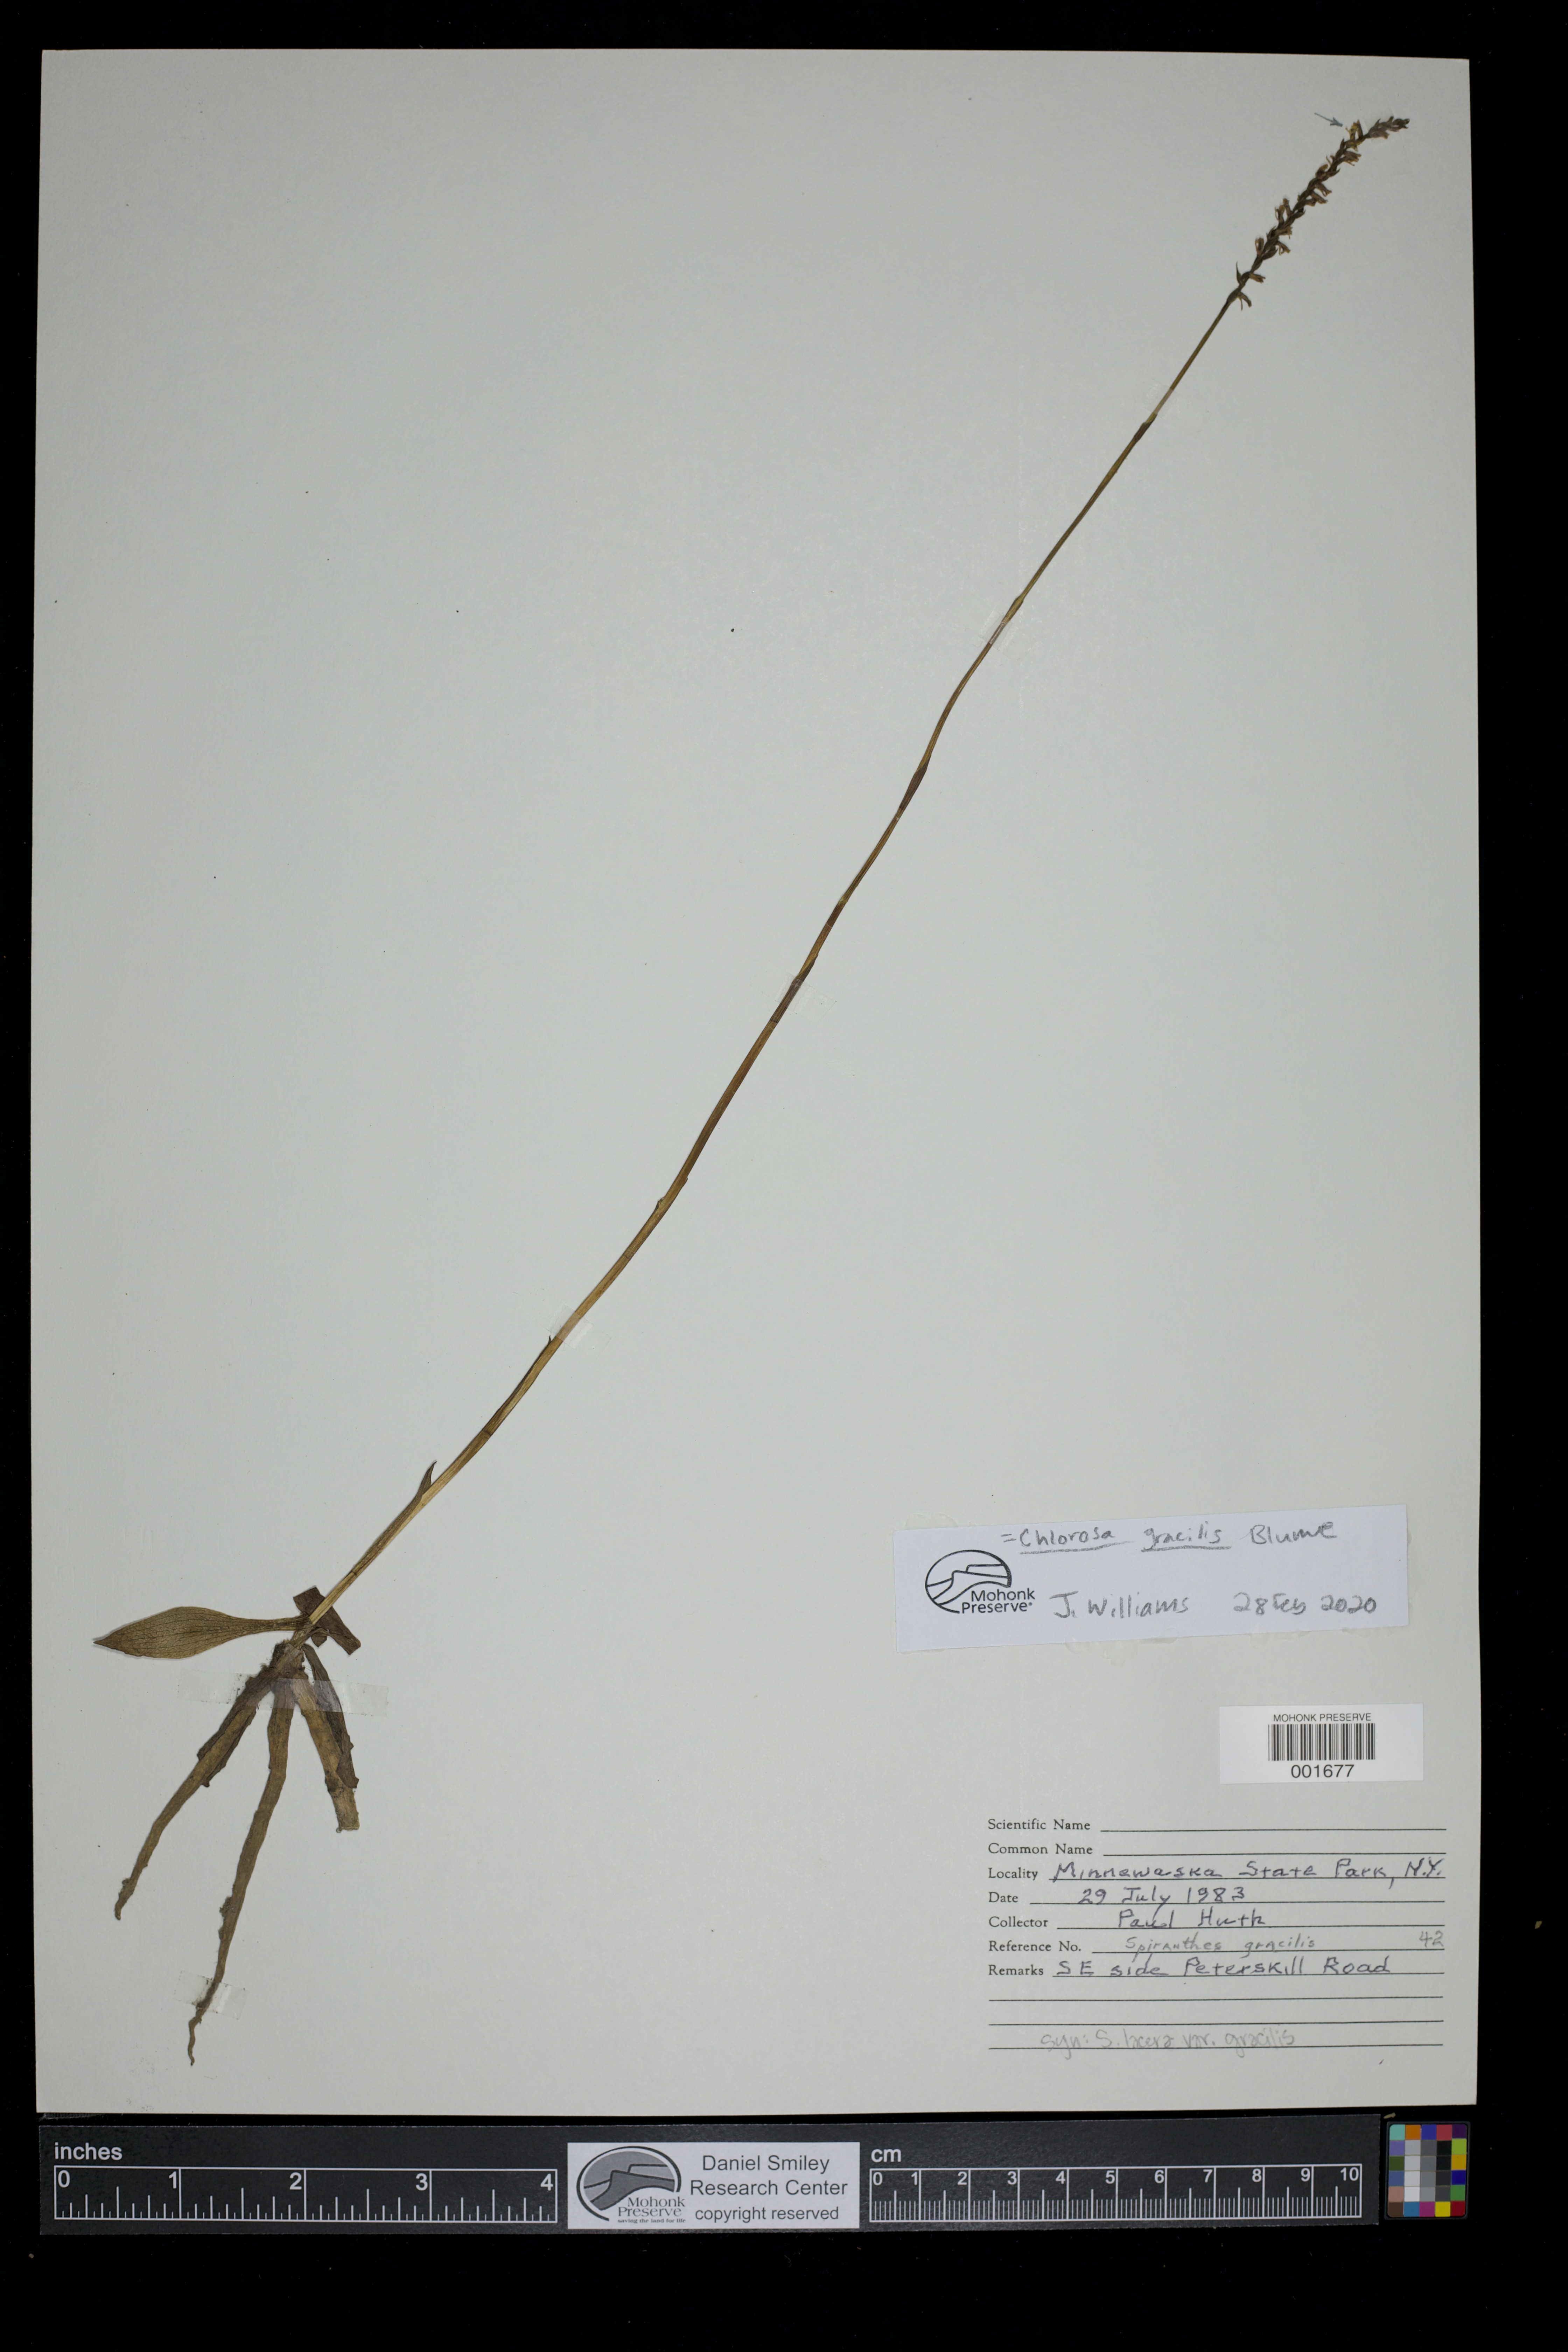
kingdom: Plantae
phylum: Tracheophyta
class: Liliopsida
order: Asparagales
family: Orchidaceae
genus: Cryptostylis
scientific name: Cryptostylis Chlorosa gracilis
